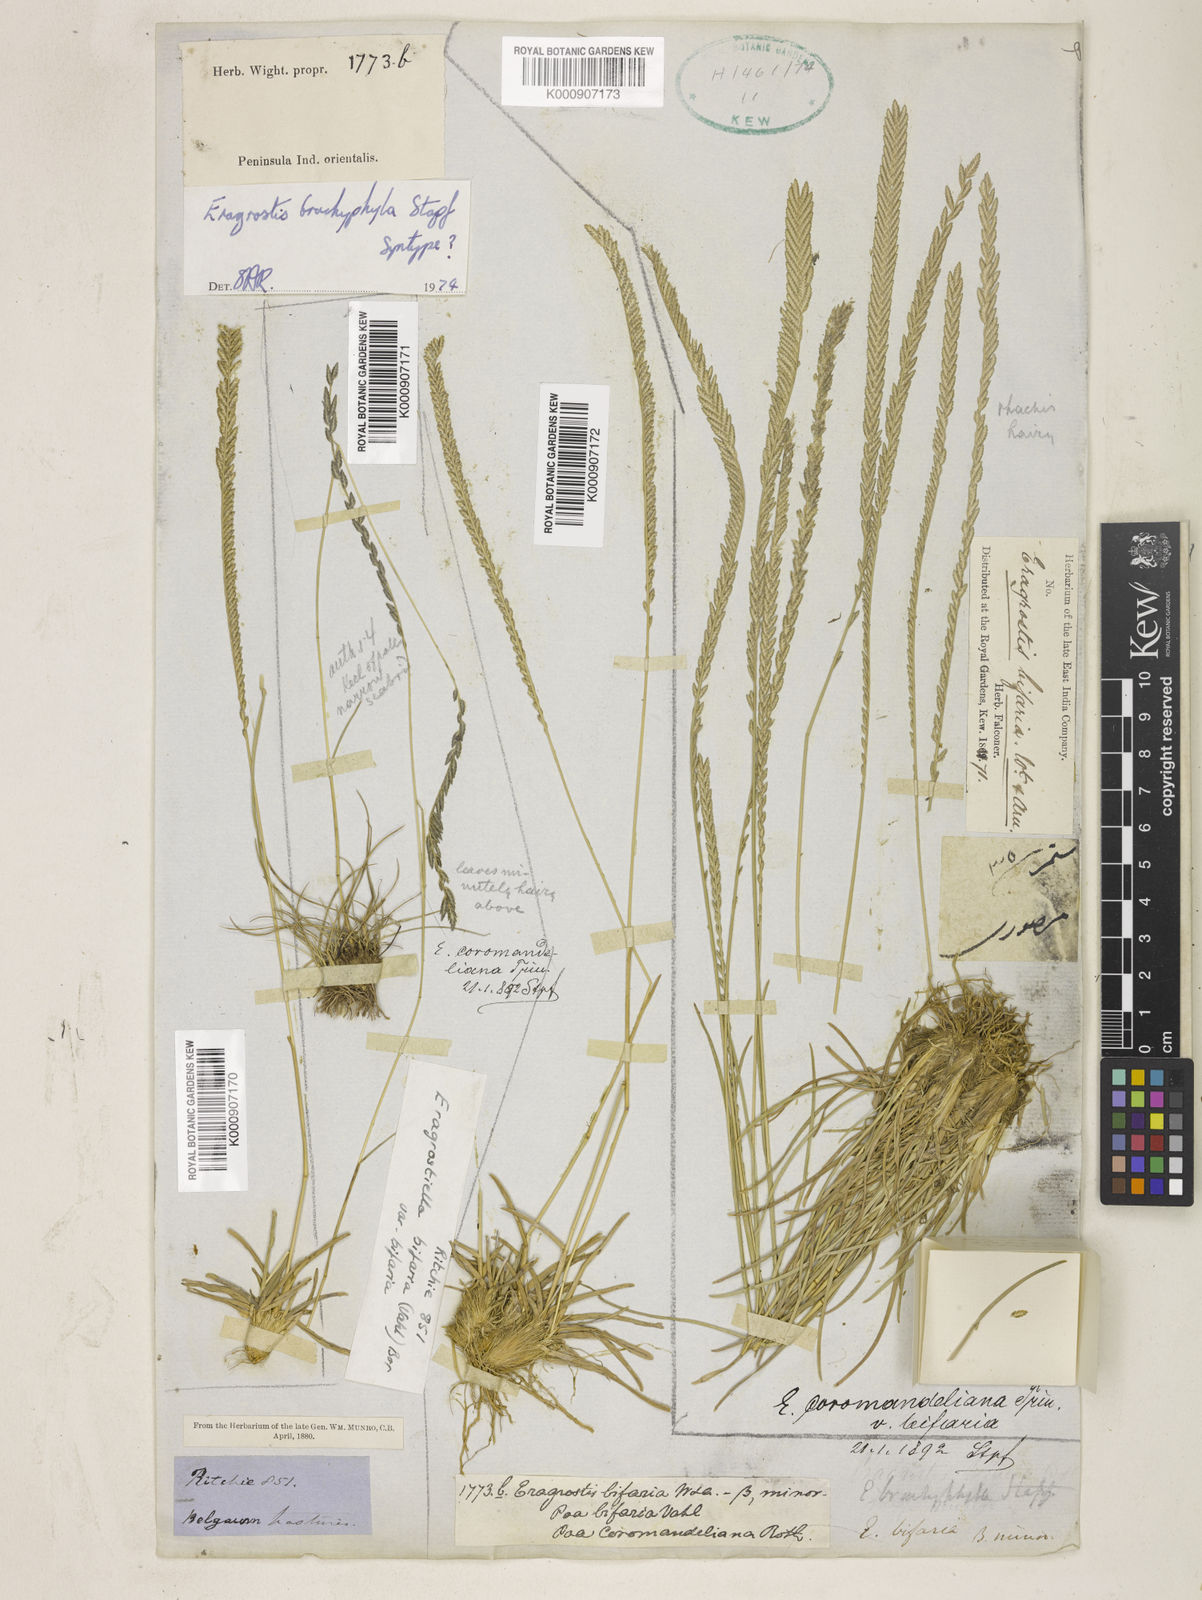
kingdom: Plantae
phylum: Tracheophyta
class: Liliopsida
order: Poales
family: Poaceae
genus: Eragrostiella
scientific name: Eragrostiella brachyphylla
